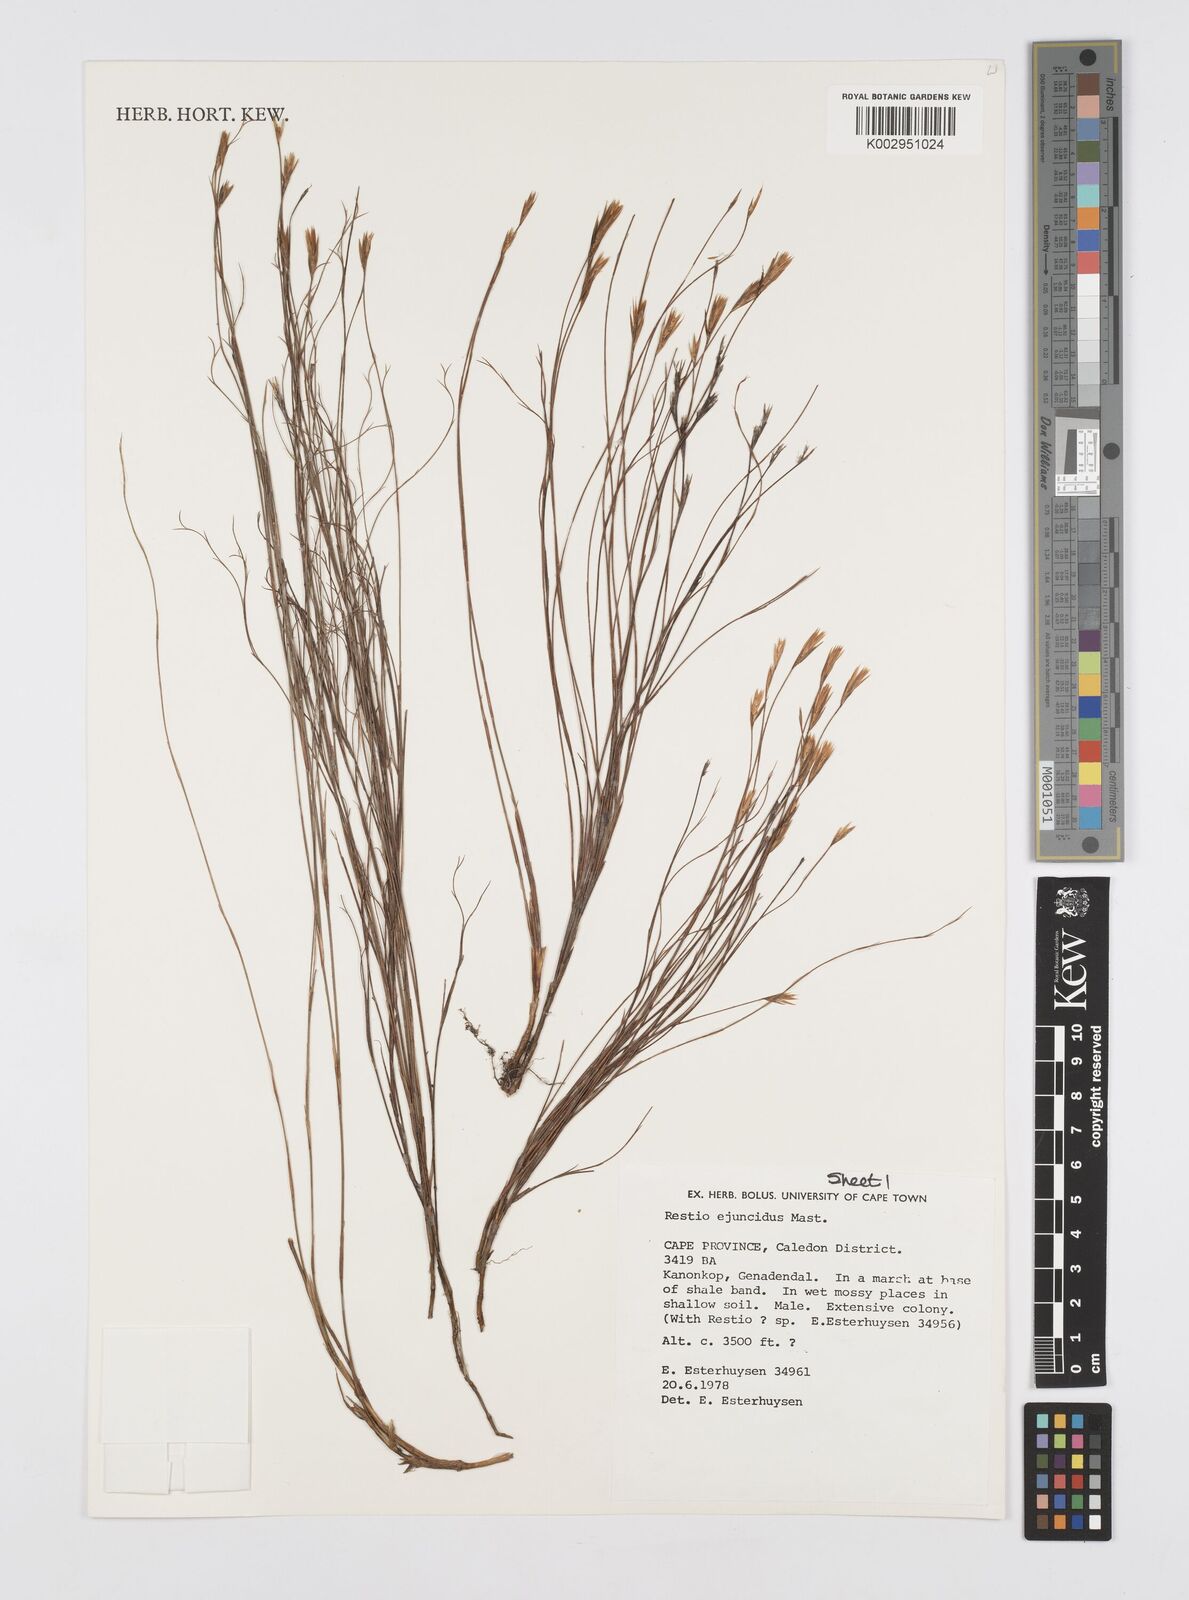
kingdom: Plantae
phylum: Tracheophyta
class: Liliopsida
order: Poales
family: Restionaceae
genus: Restio
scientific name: Restio ejuncidus
